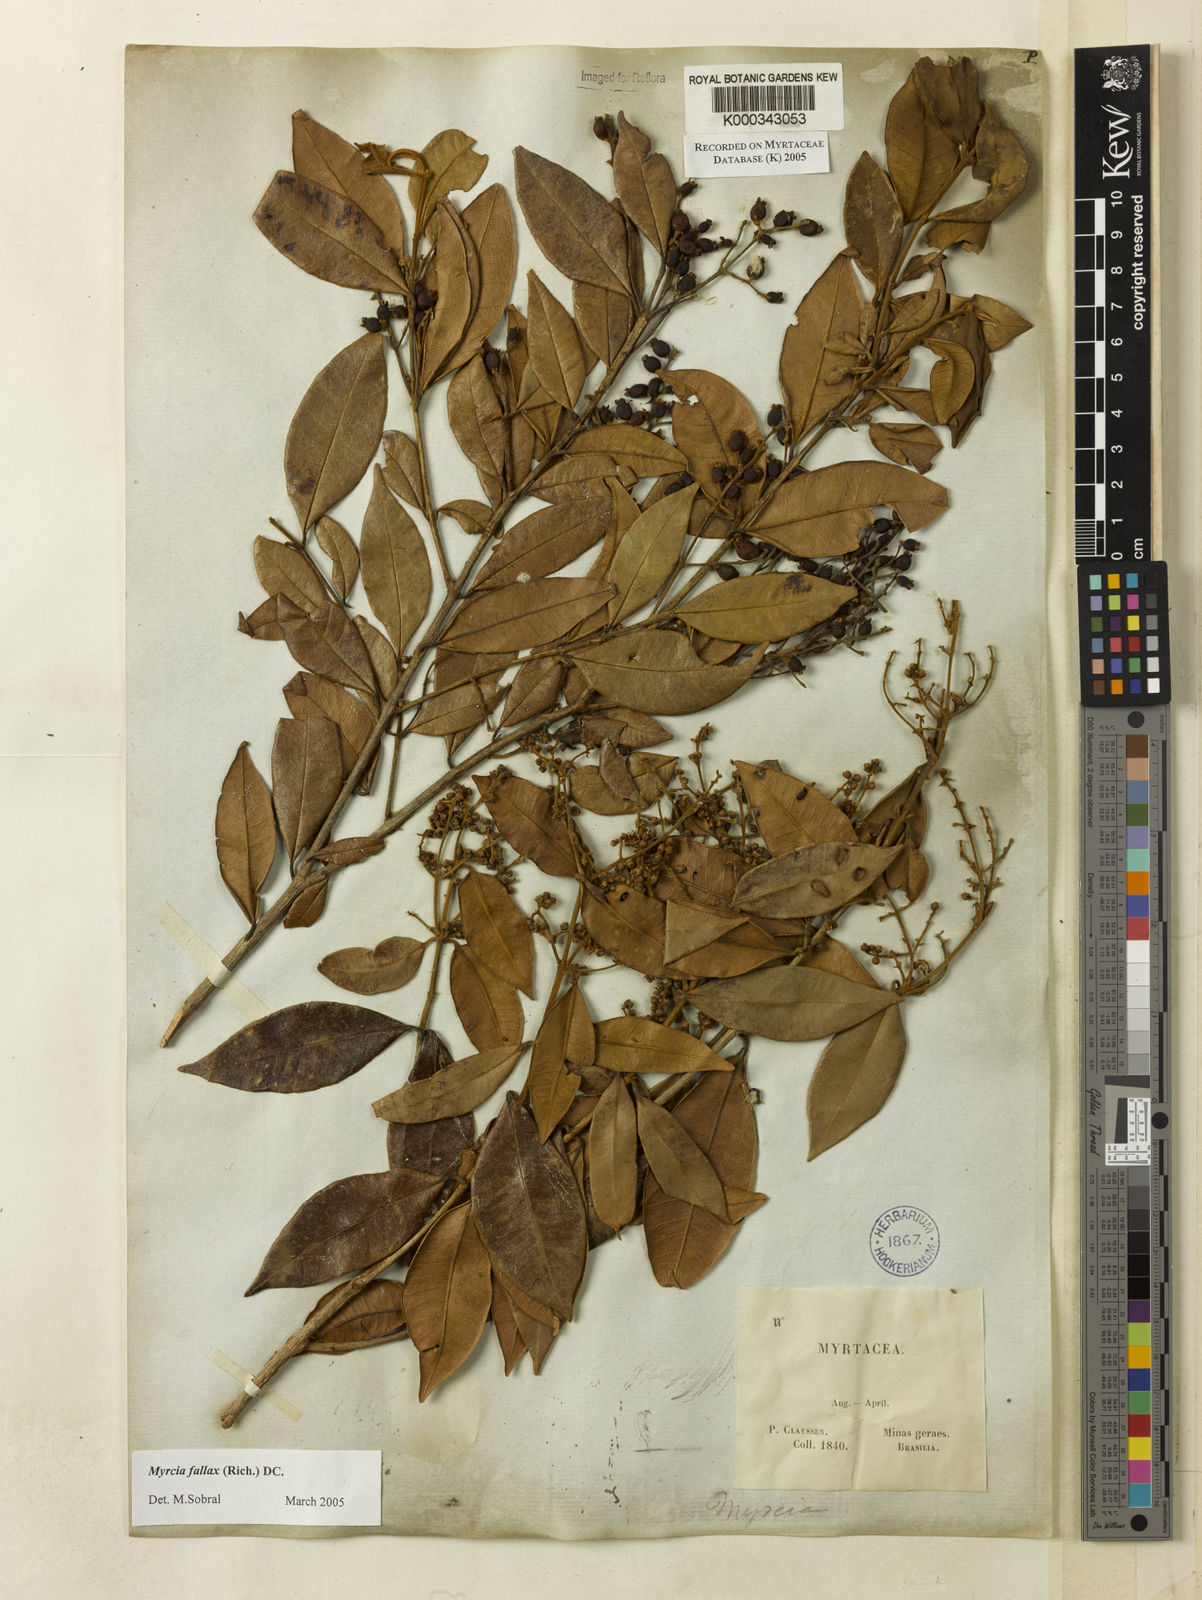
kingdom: Plantae
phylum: Tracheophyta
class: Magnoliopsida
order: Myrtales
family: Myrtaceae
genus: Myrcia
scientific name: Myrcia splendens
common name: Surinam cherry
